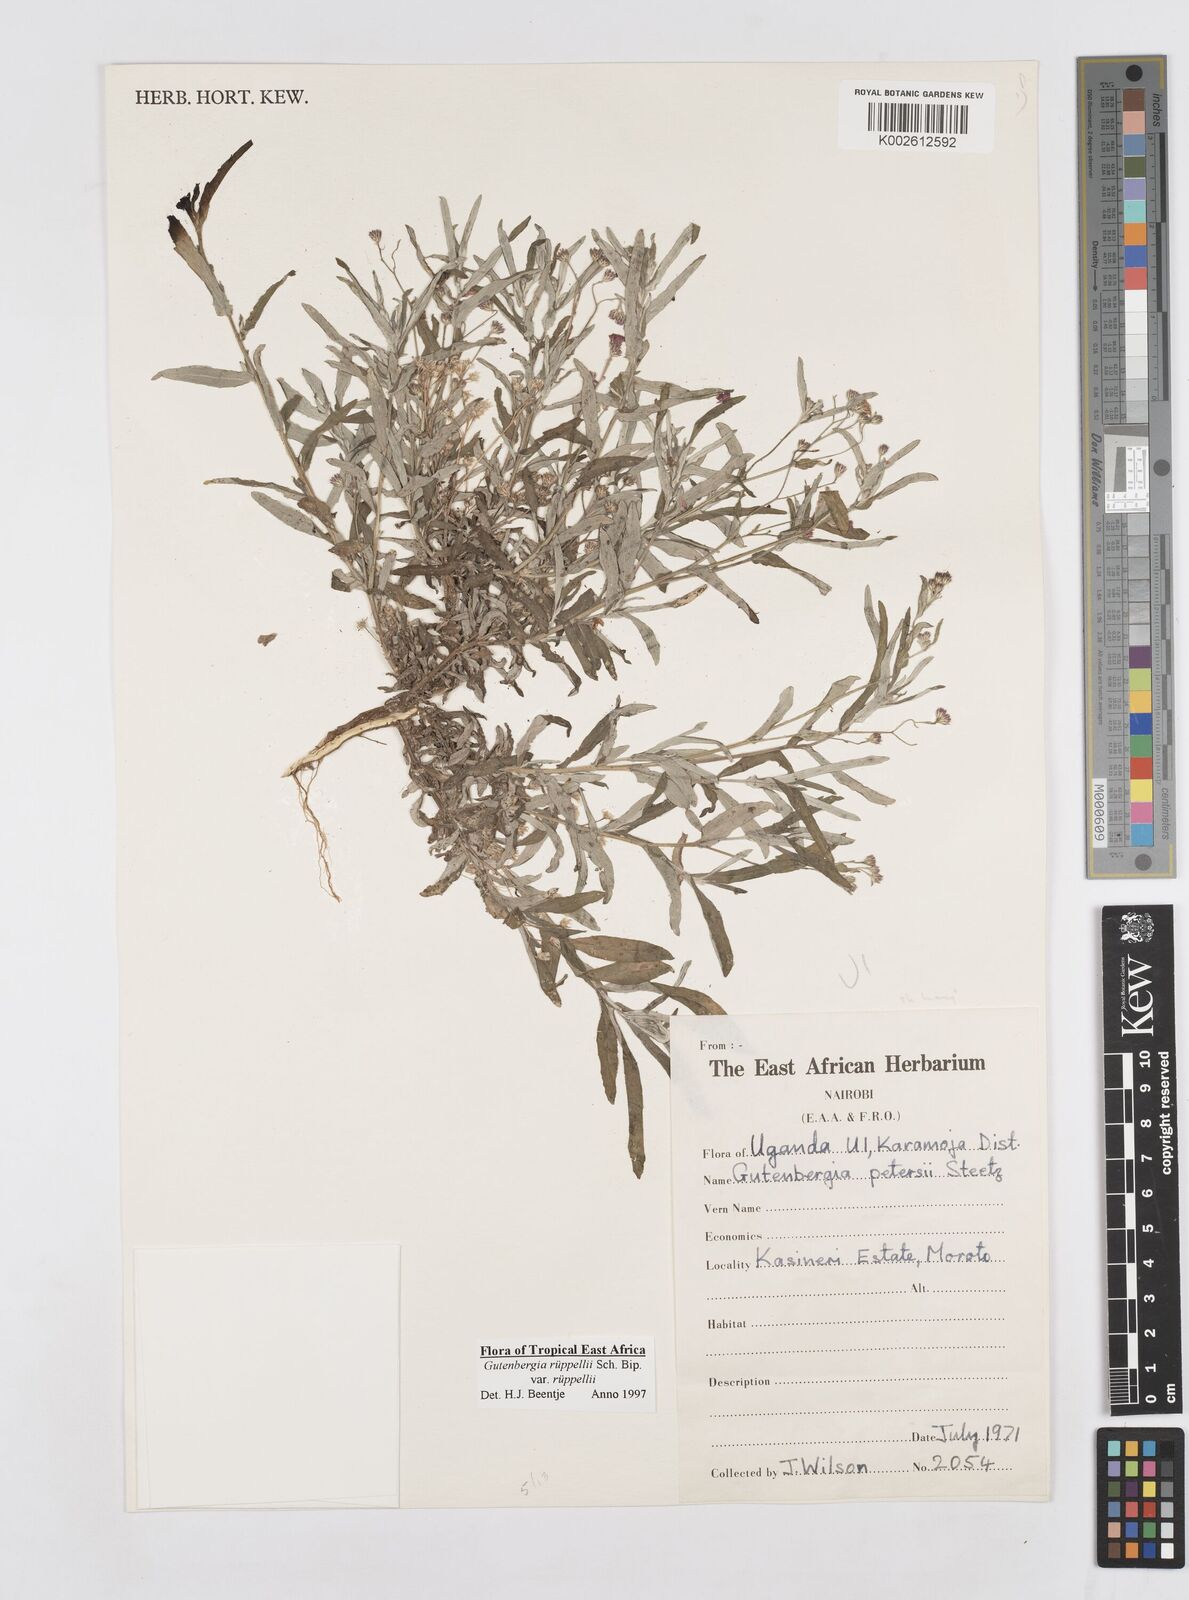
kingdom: Plantae
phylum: Tracheophyta
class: Magnoliopsida
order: Asterales
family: Asteraceae
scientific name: Asteraceae
